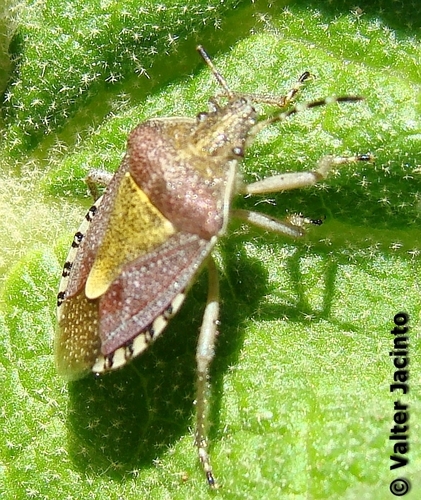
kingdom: Animalia
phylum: Arthropoda
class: Insecta
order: Hemiptera
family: Pentatomidae
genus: Dolycoris
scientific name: Dolycoris baccarum
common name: Sloe bug
